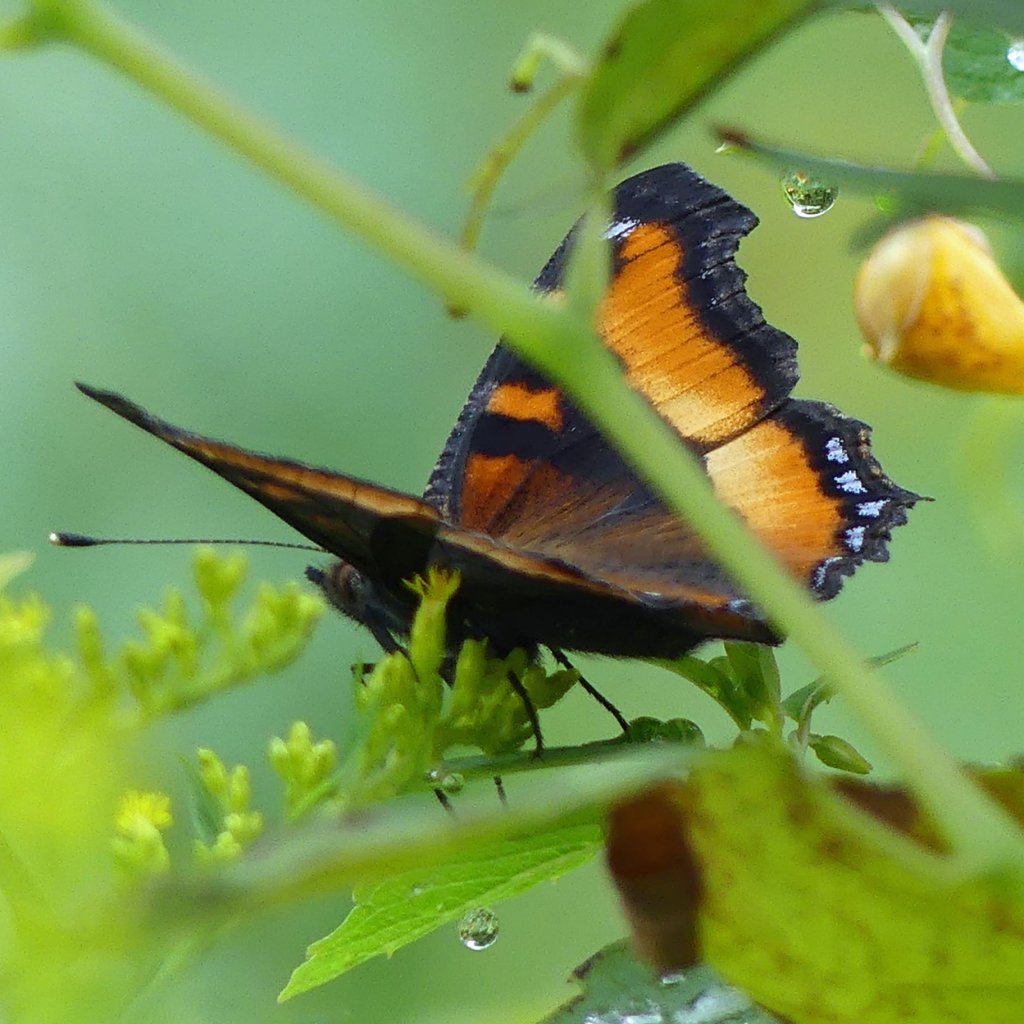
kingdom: Animalia
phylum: Arthropoda
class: Insecta
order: Lepidoptera
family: Nymphalidae
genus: Aglais
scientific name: Aglais milberti
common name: Milbert's Tortoiseshell
